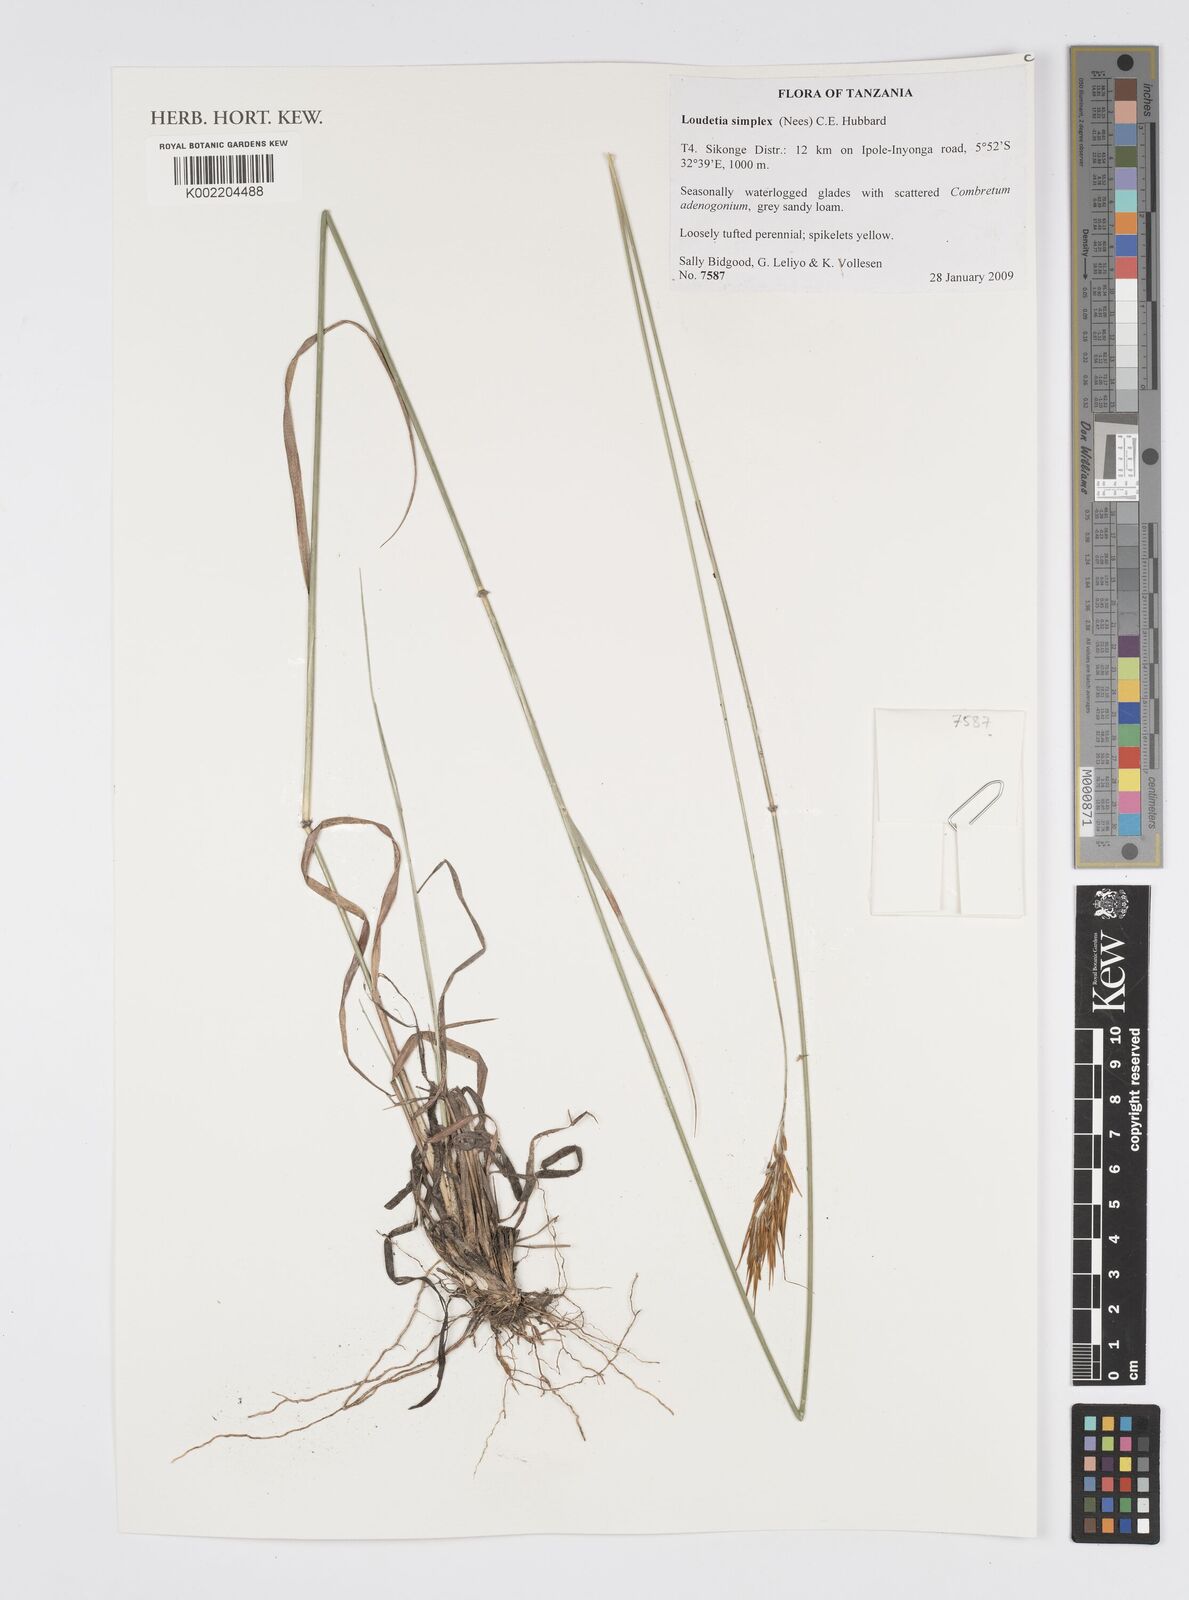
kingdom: Plantae
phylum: Tracheophyta
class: Liliopsida
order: Poales
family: Poaceae
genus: Loudetia
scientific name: Loudetia simplex
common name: Common russet grass
